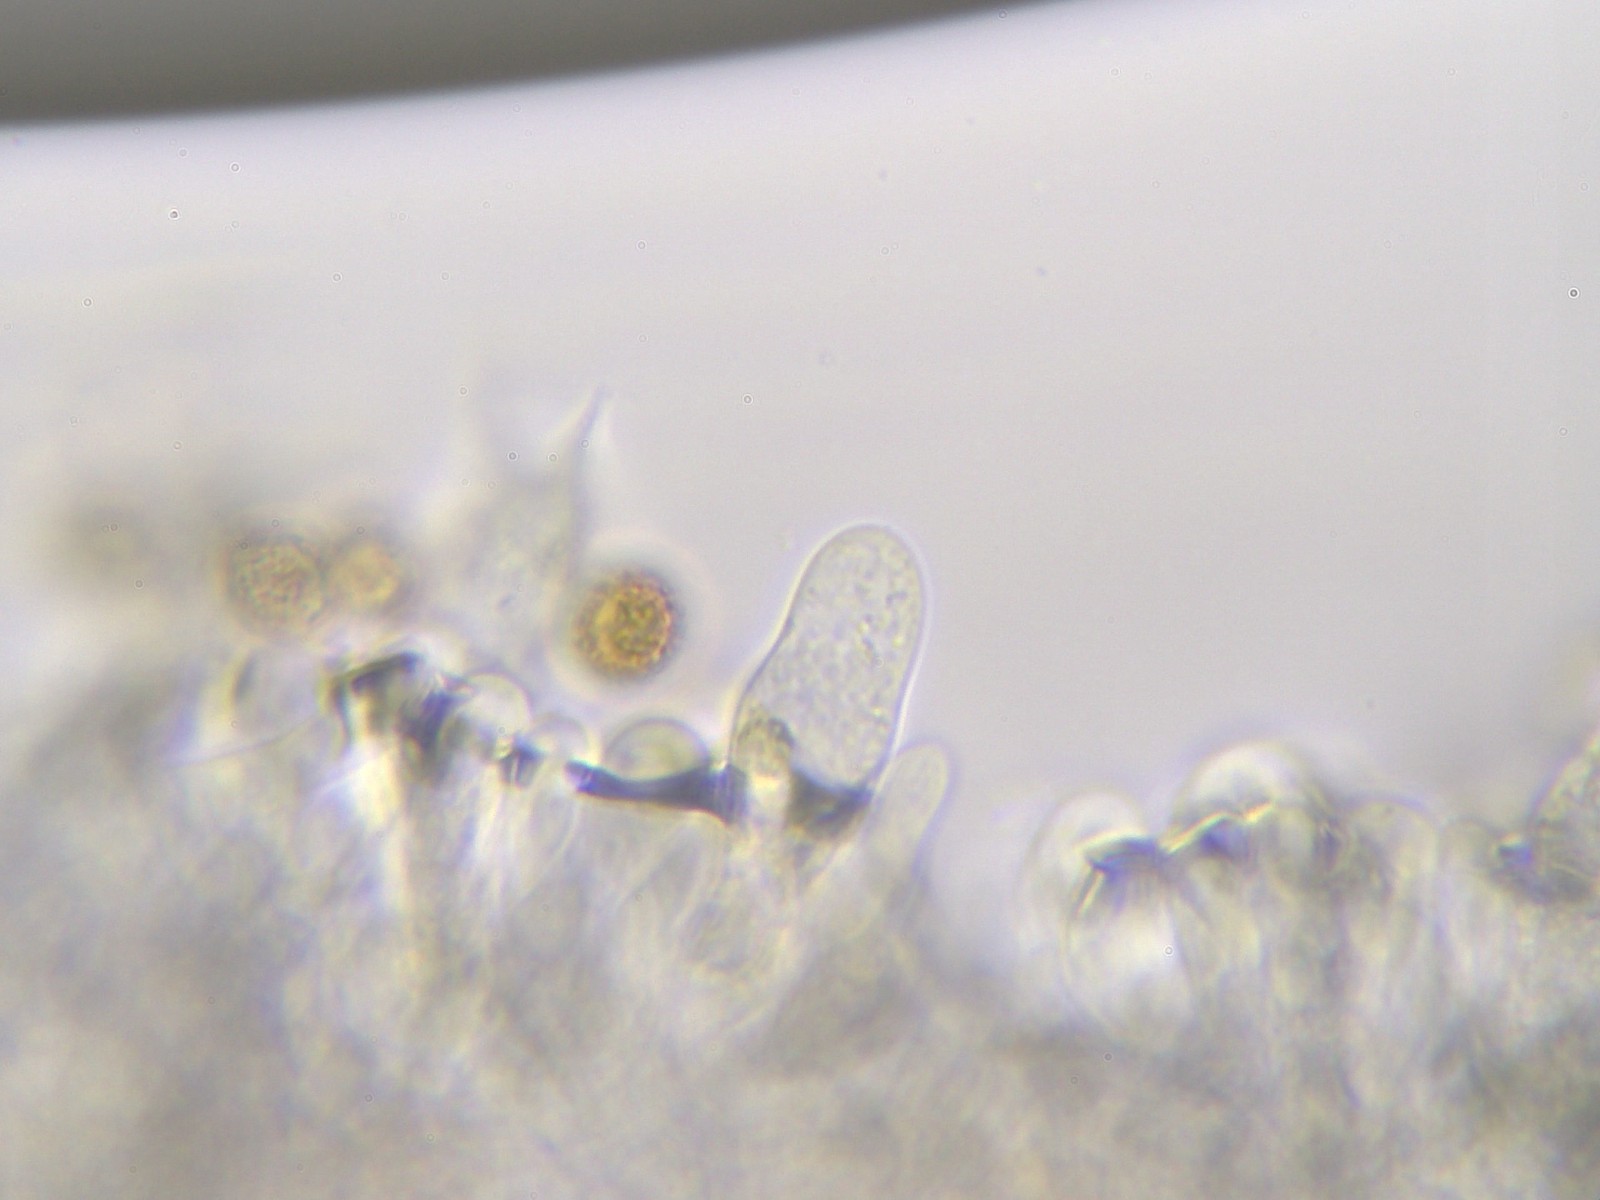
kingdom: Fungi
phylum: Basidiomycota
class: Agaricomycetes
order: Agaricales
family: Cortinariaceae
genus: Cortinarius
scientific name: Cortinarius albocyaneus
